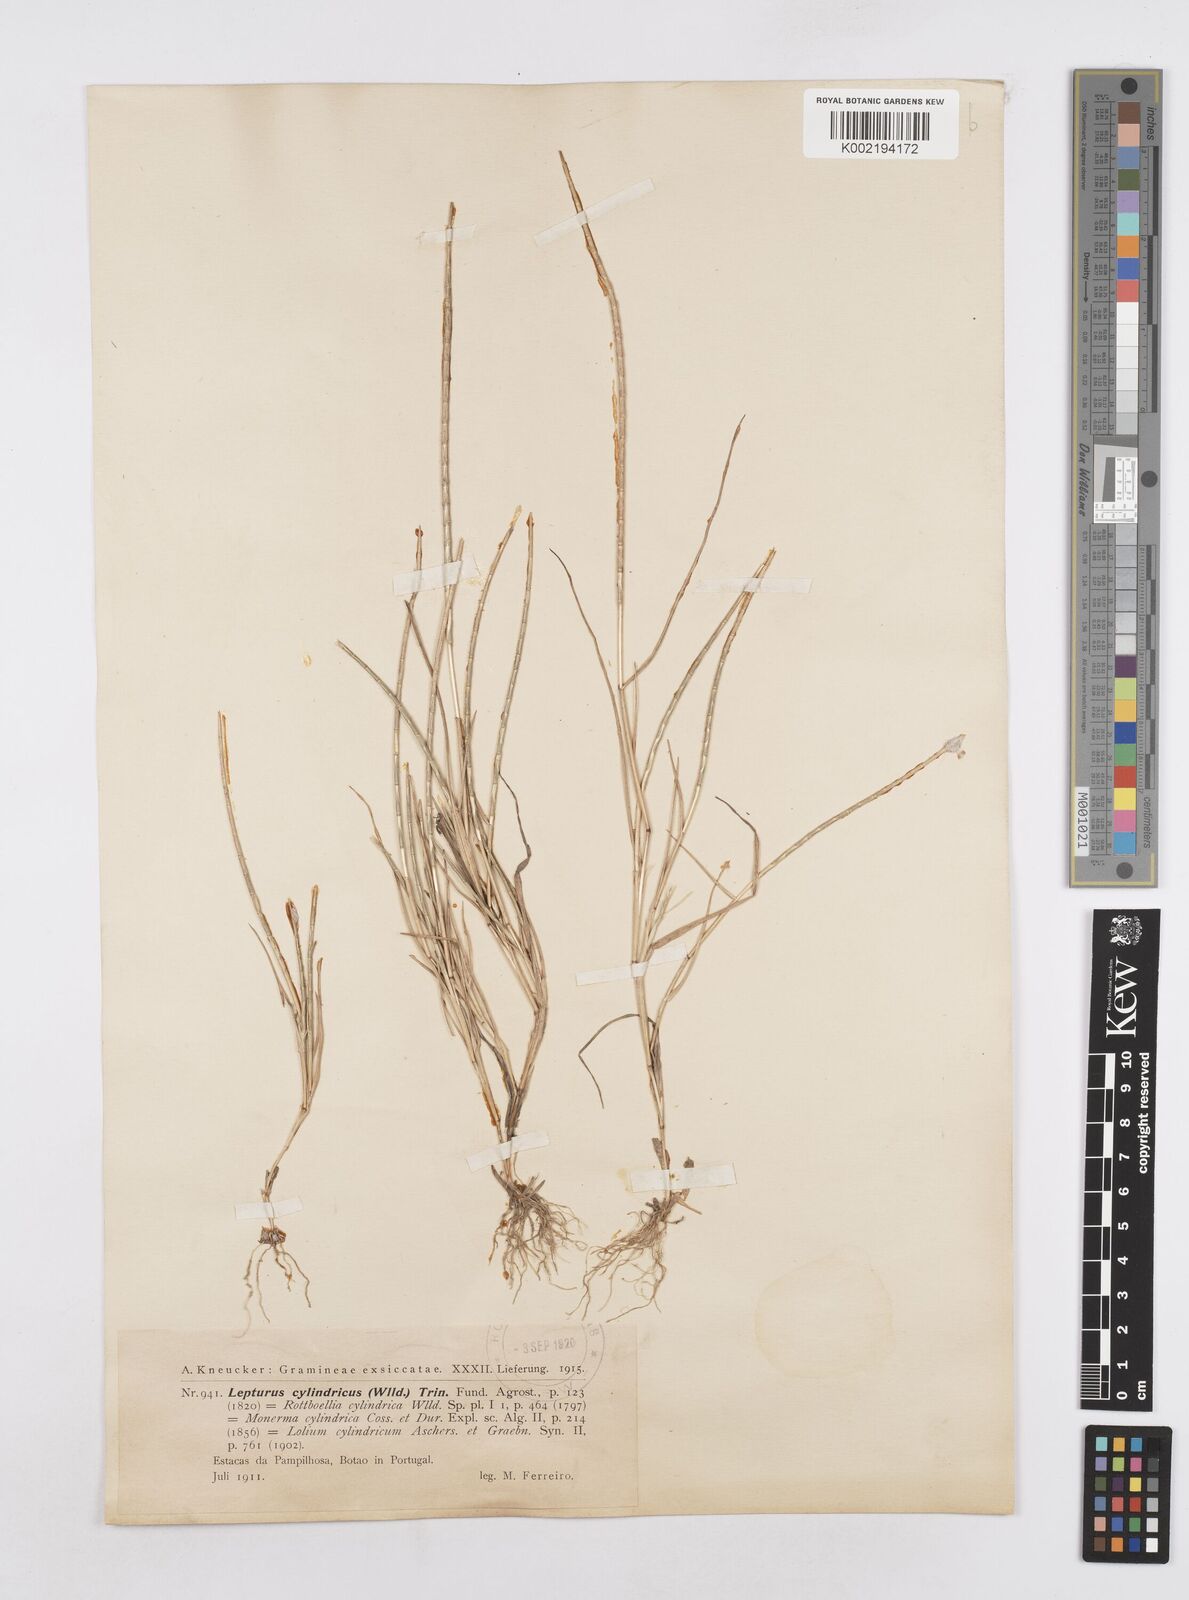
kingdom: Plantae
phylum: Tracheophyta
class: Liliopsida
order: Poales
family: Poaceae
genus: Parapholis
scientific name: Parapholis cylindrica
